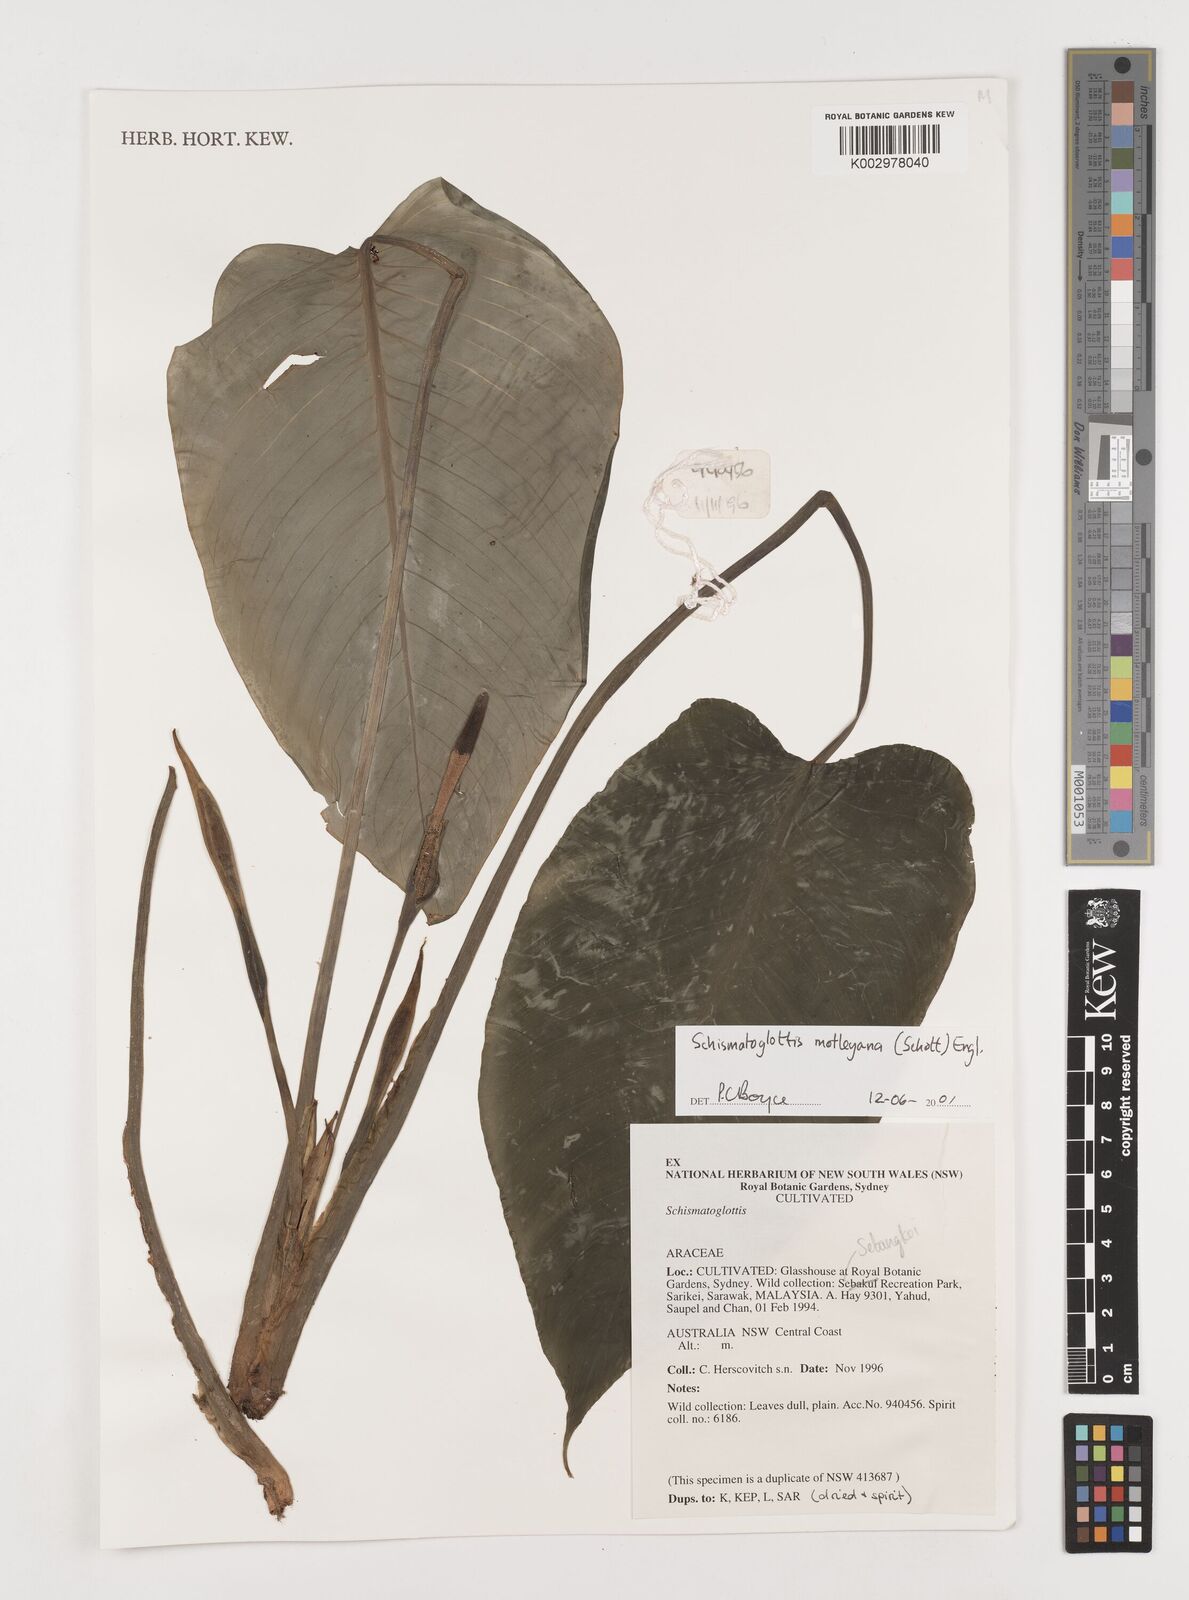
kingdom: Plantae
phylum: Tracheophyta
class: Liliopsida
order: Alismatales
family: Araceae
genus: Schismatoglottis
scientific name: Schismatoglottis motleyana
